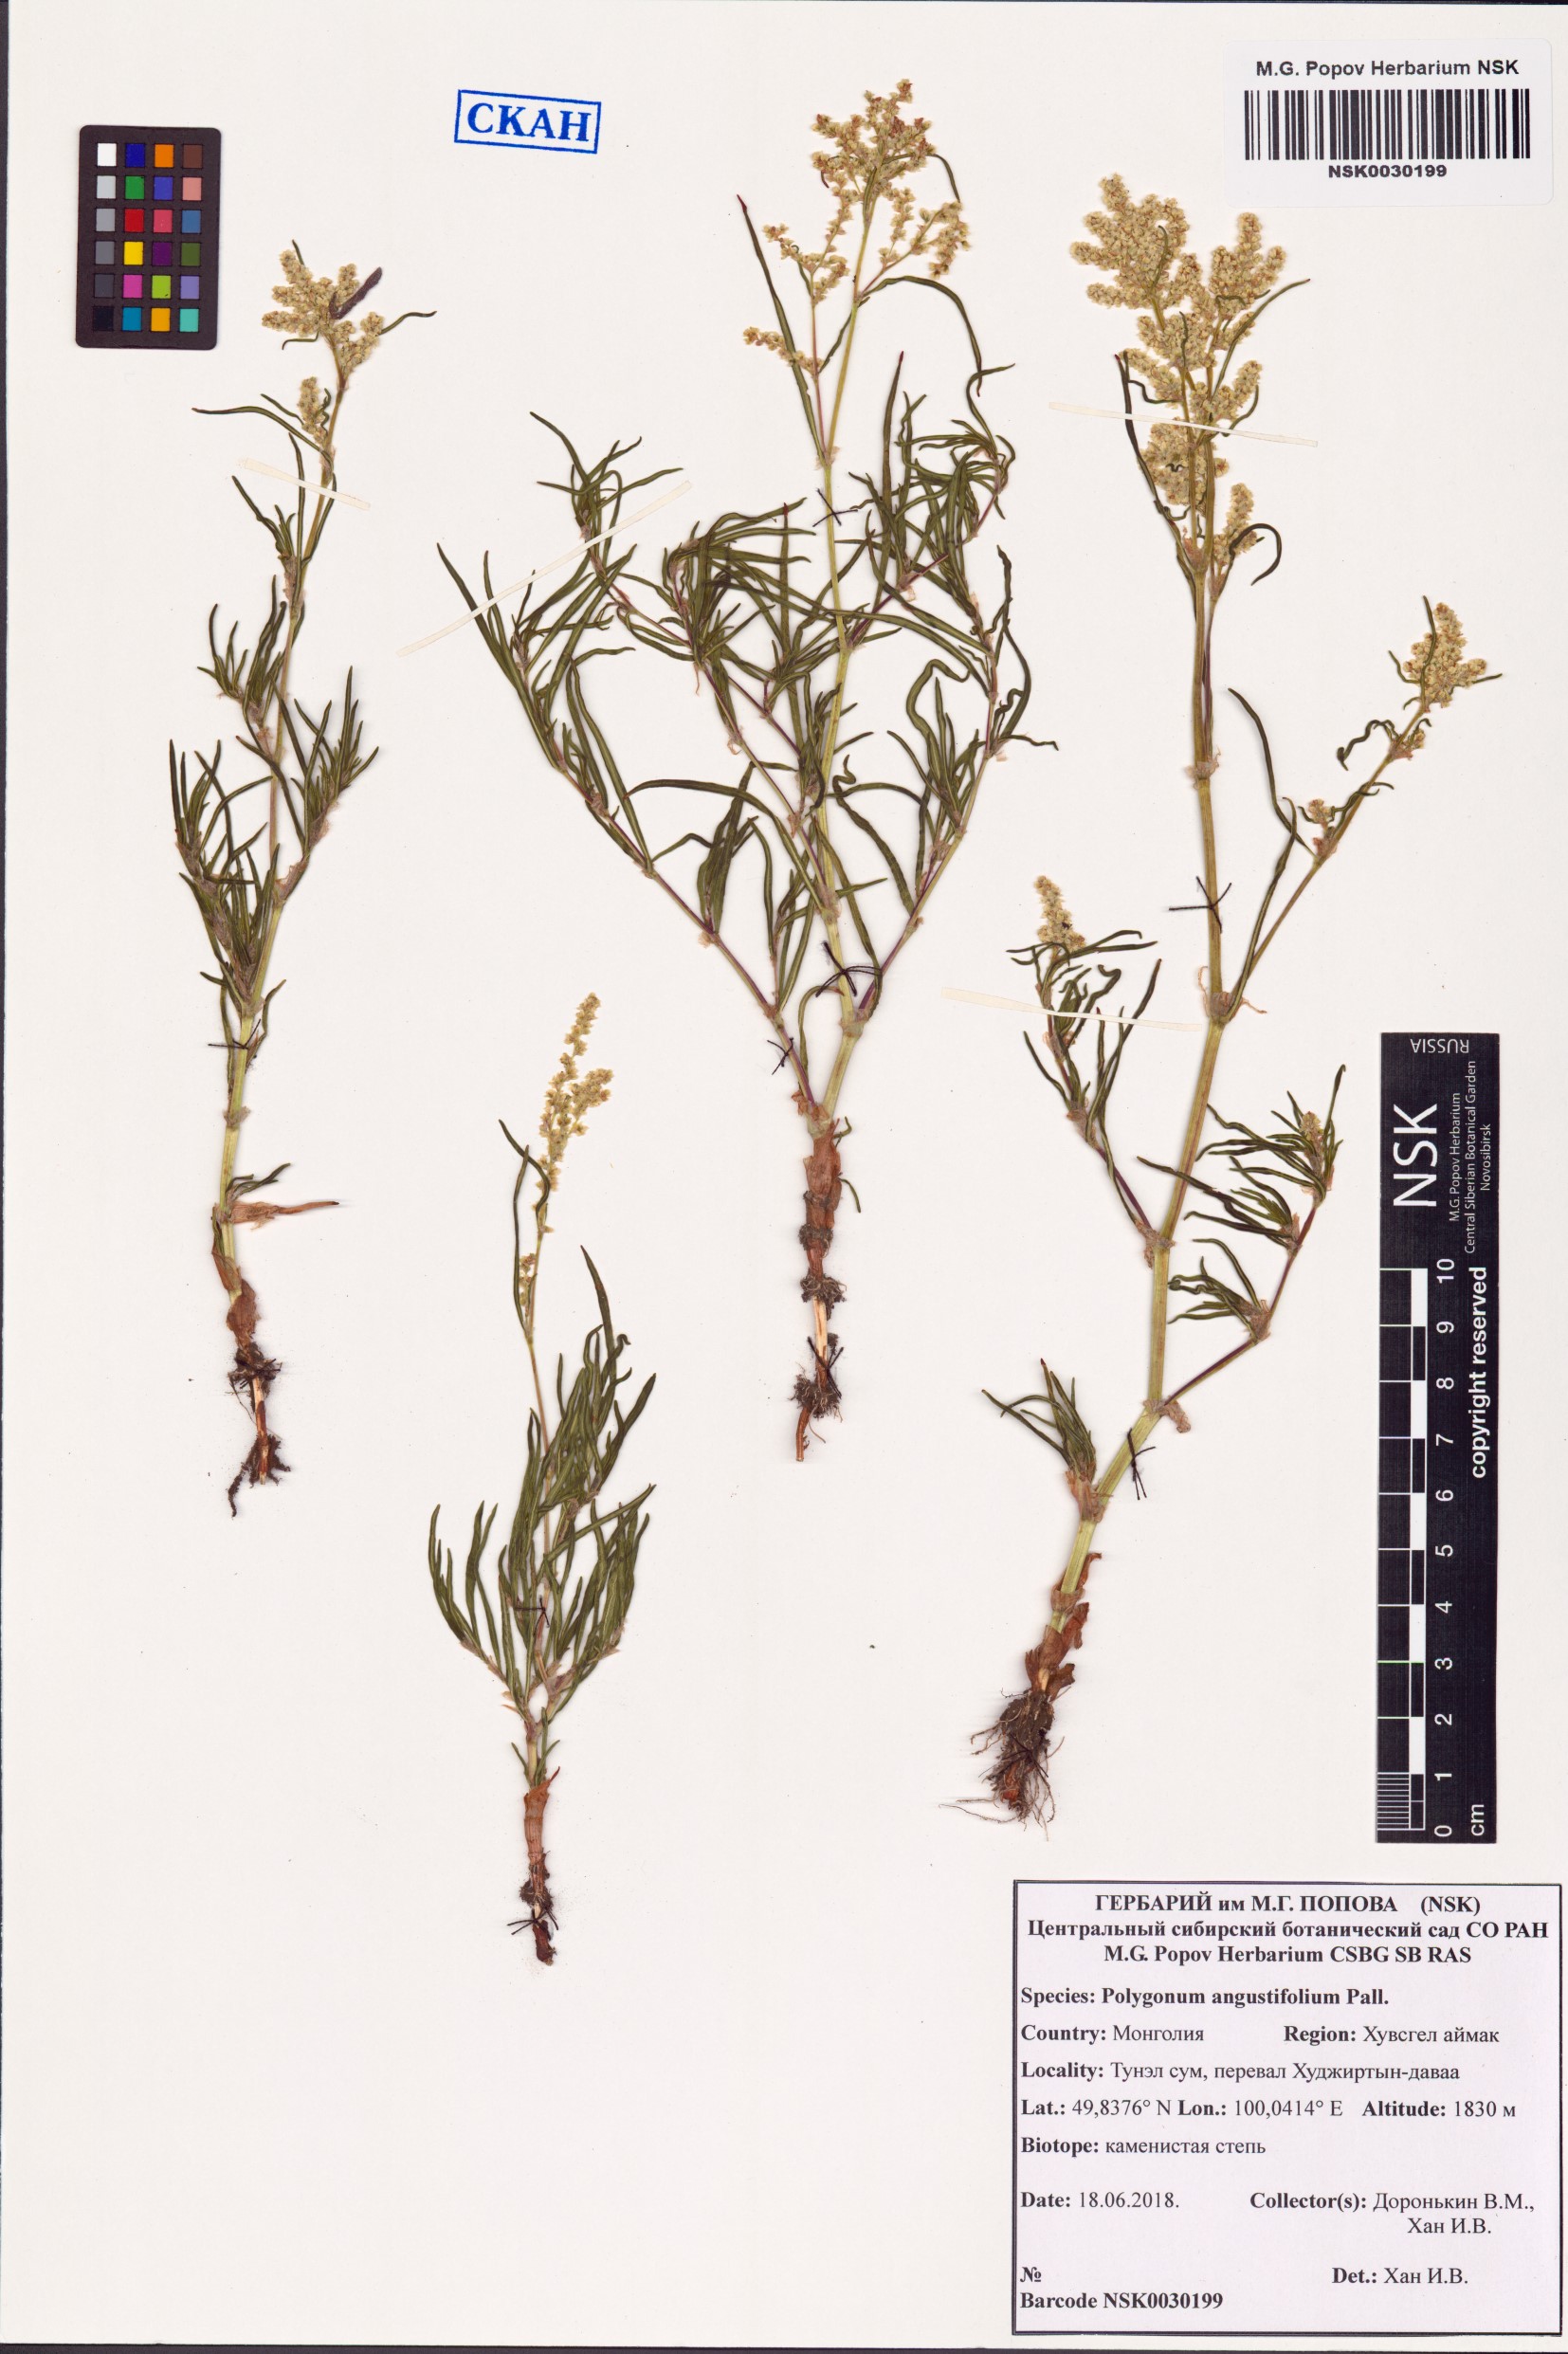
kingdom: Plantae
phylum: Tracheophyta
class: Magnoliopsida
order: Caryophyllales
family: Polygonaceae
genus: Persicaria
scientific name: Persicaria angustifolia
